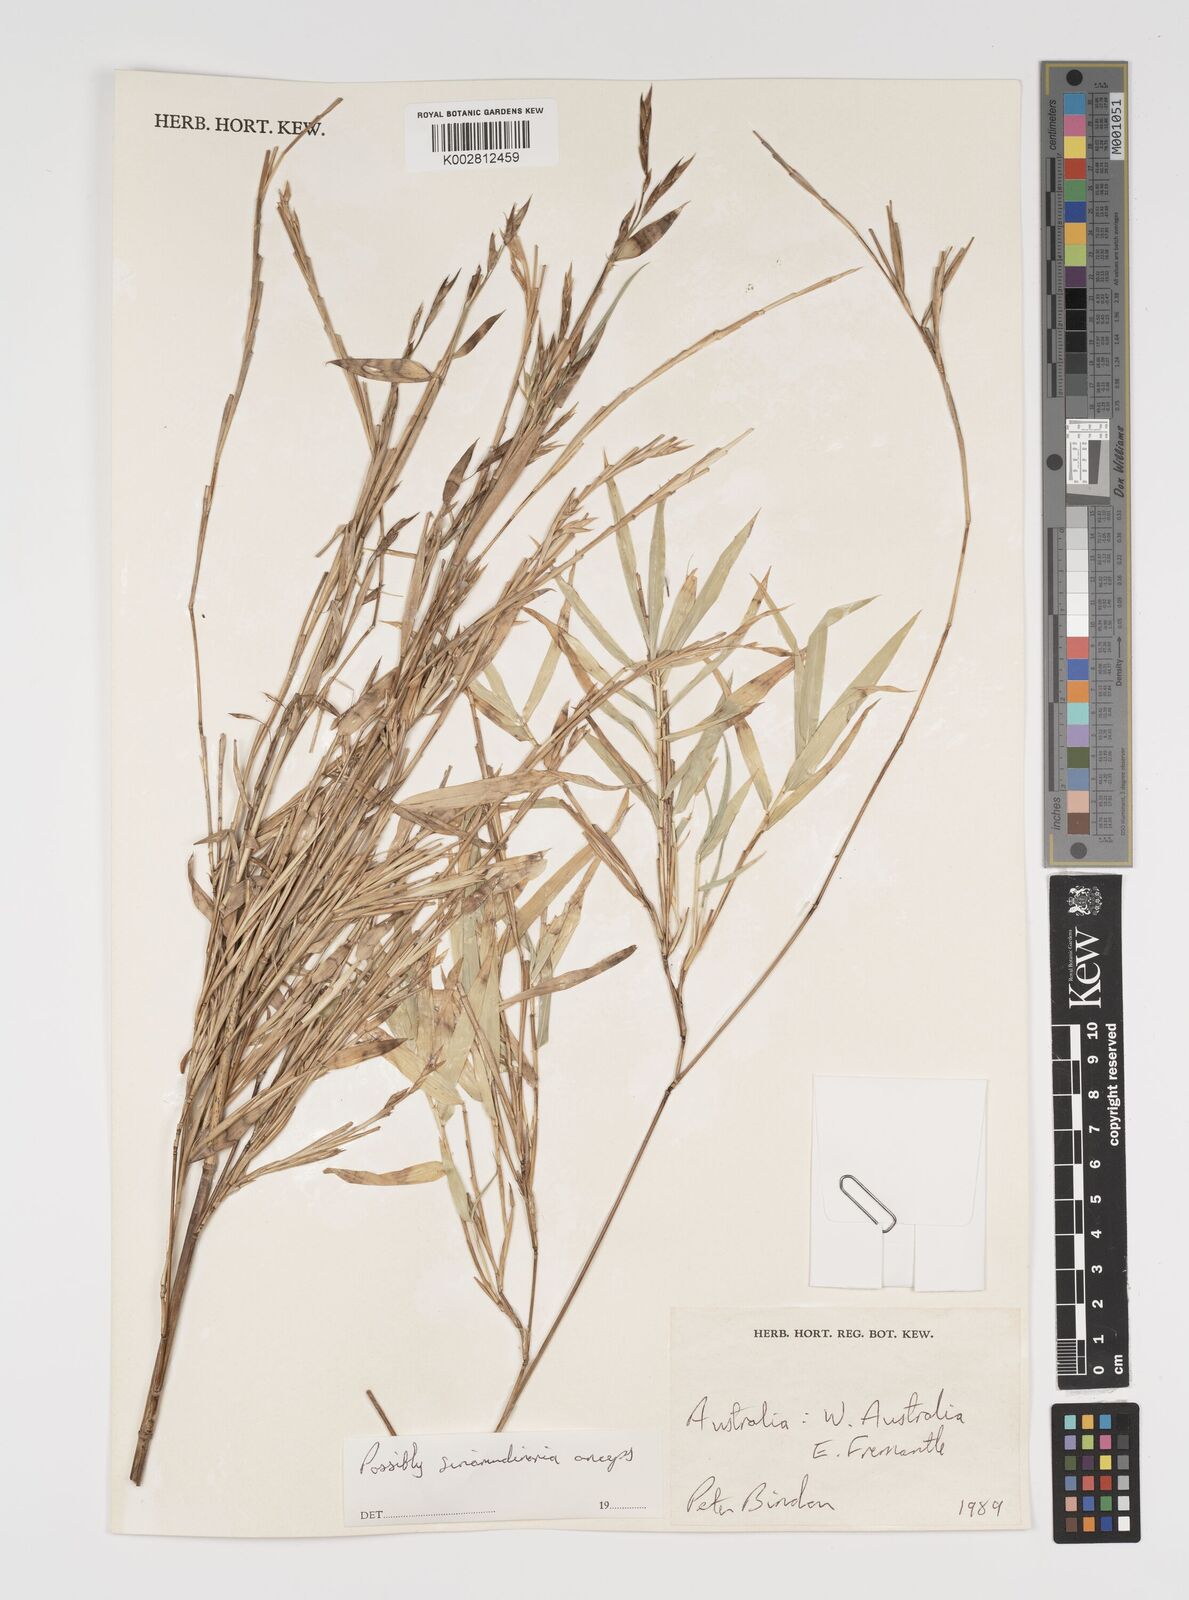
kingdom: Plantae
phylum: Tracheophyta
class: Liliopsida
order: Poales
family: Poaceae
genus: Yushania
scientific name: Yushania anceps
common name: Indian fountain-bamboo
